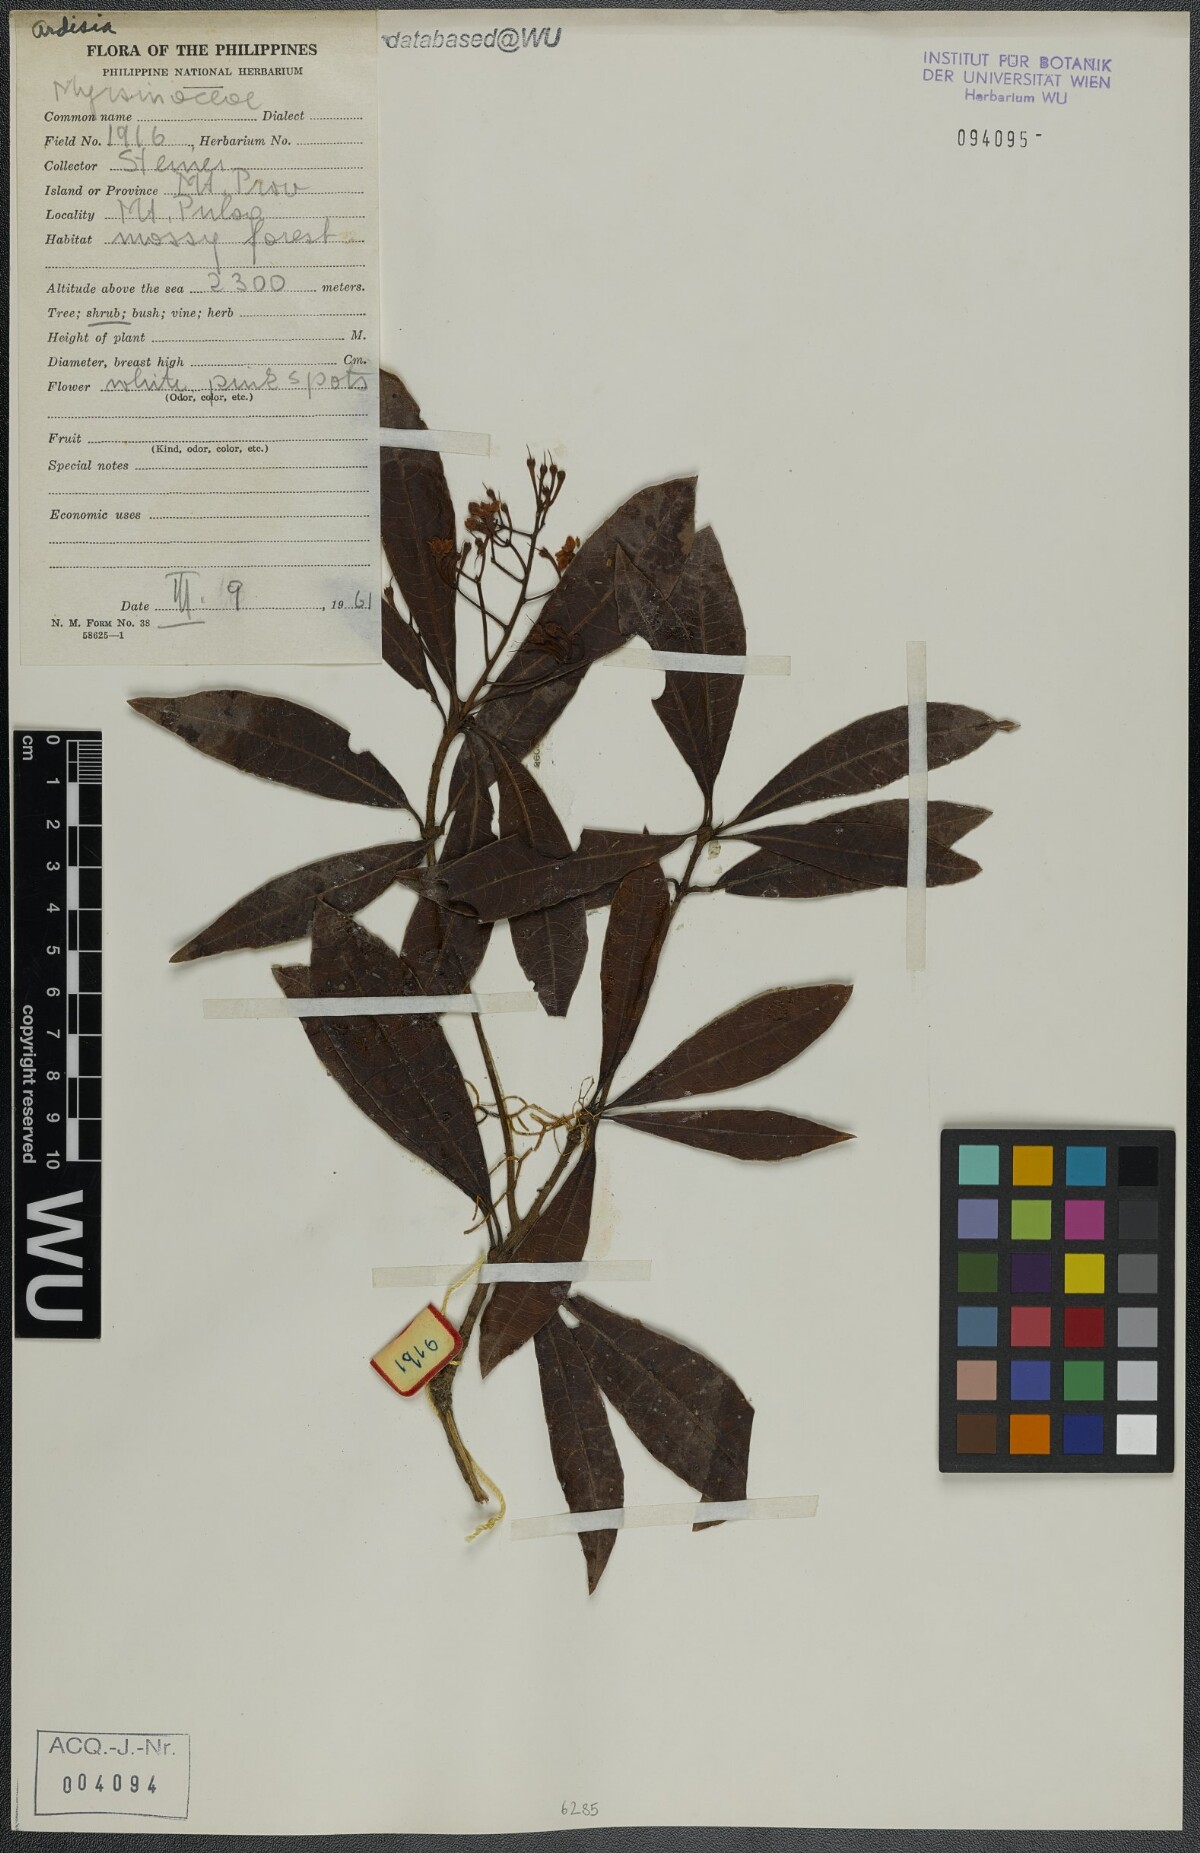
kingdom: Plantae
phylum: Tracheophyta
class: Magnoliopsida
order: Ericales
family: Primulaceae
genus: Ardisia
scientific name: Ardisia
